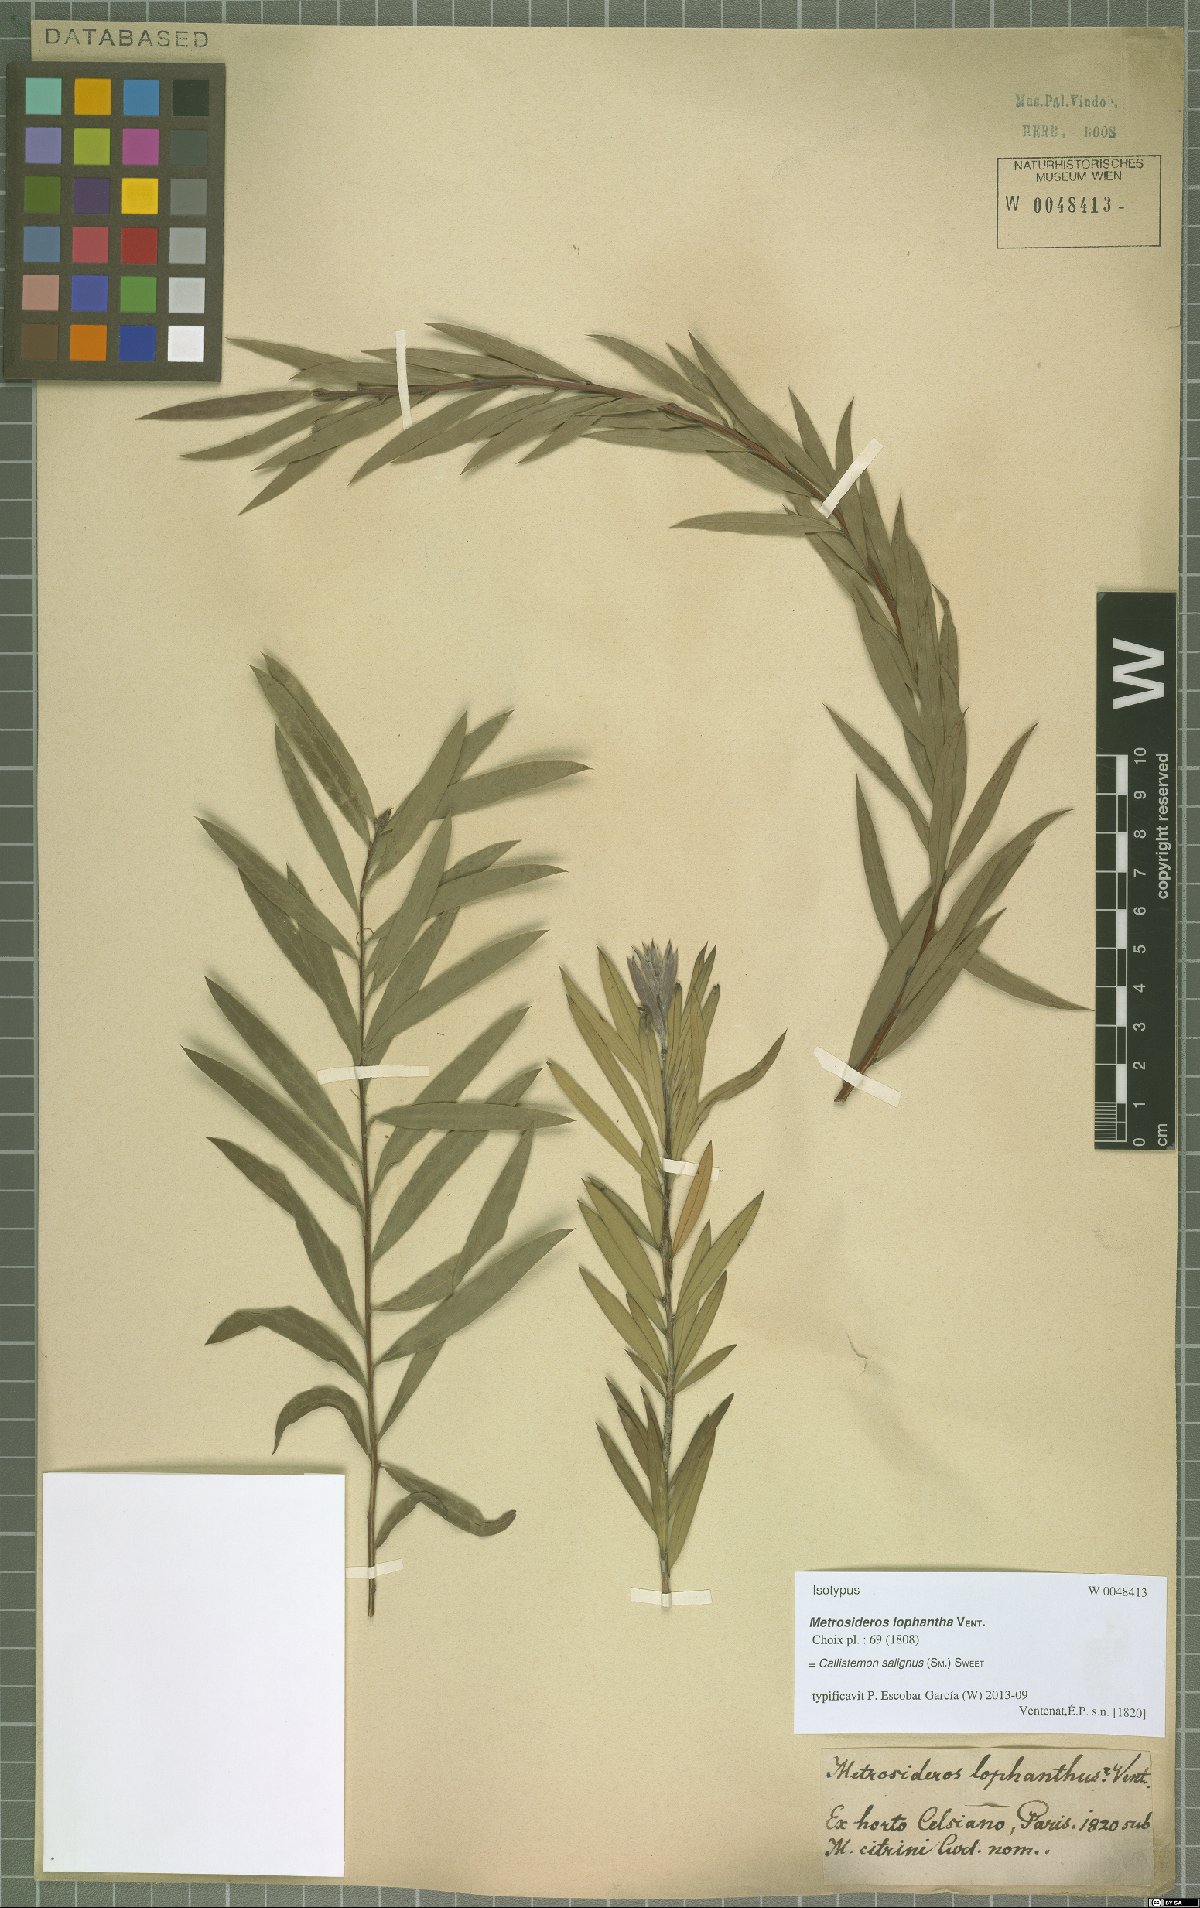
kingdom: Plantae
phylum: Tracheophyta
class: Magnoliopsida
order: Myrtales
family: Myrtaceae
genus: Callistemon
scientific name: Callistemon salignus
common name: White bottlebrush
